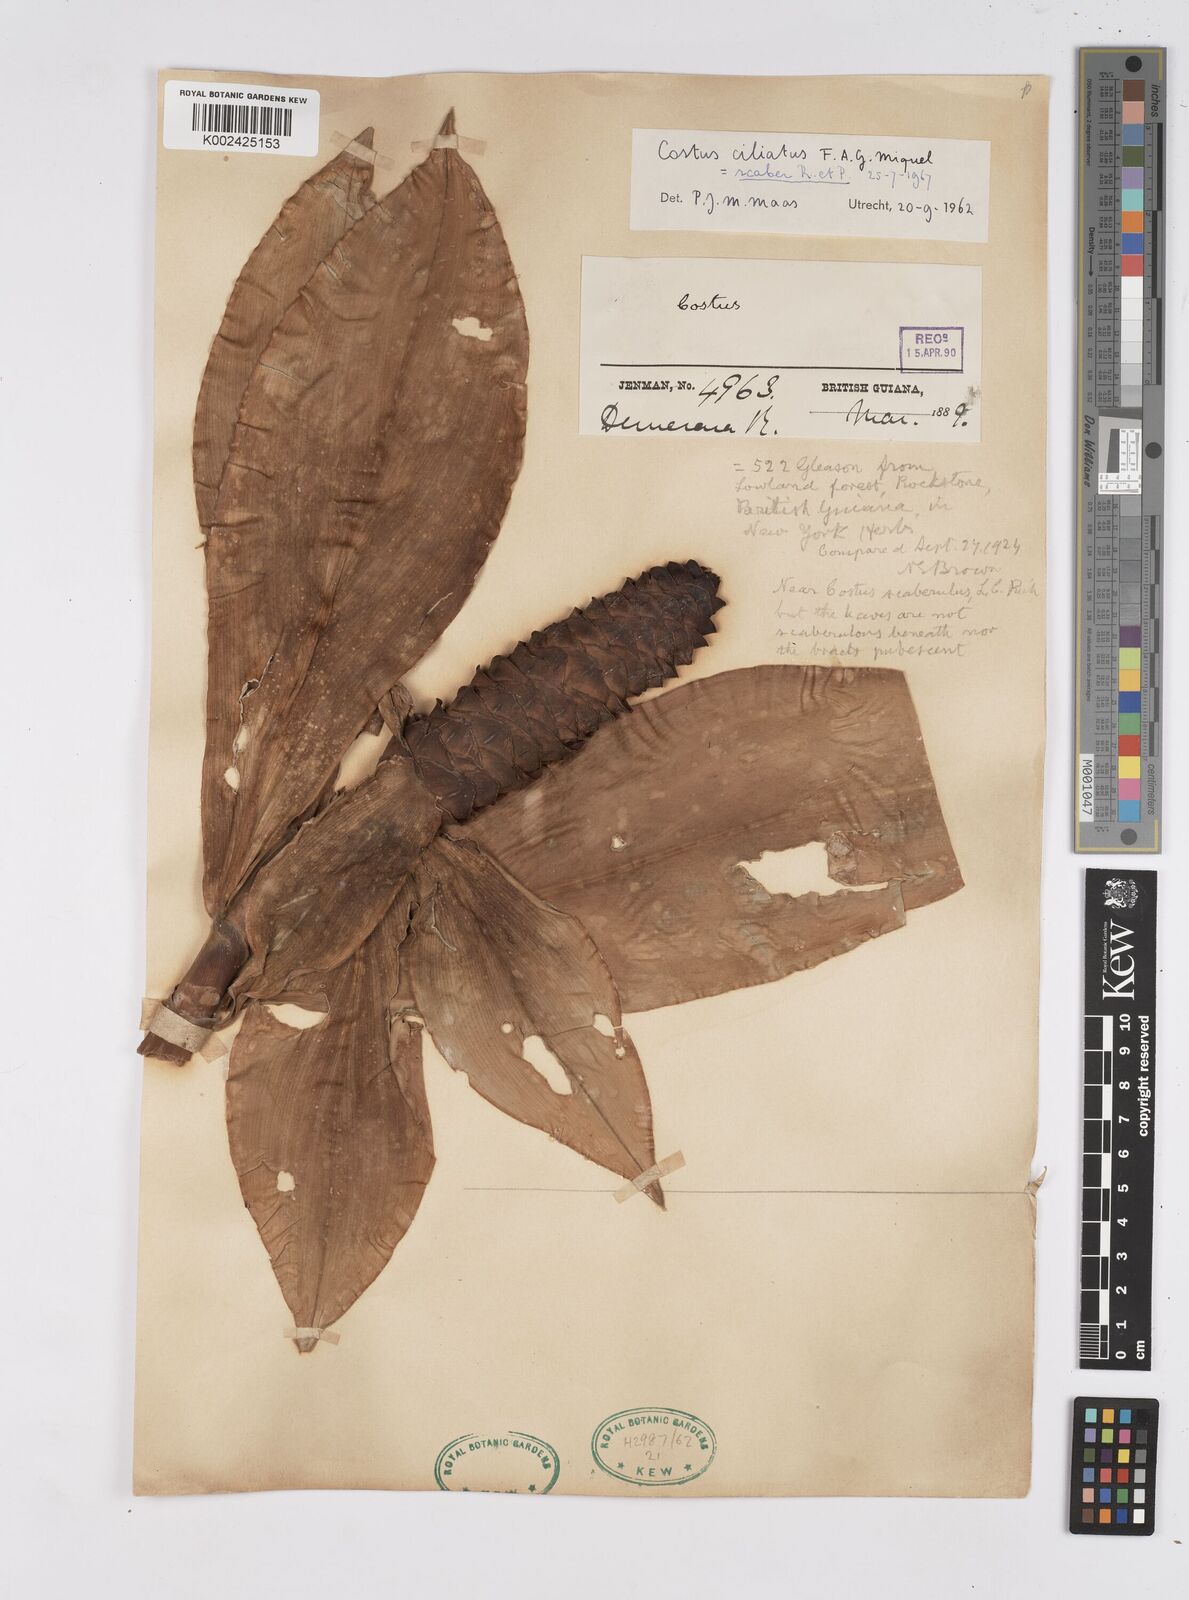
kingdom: Plantae
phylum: Tracheophyta
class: Liliopsida
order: Zingiberales
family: Costaceae
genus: Costus
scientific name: Costus scaber
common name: Spiral head ginger
